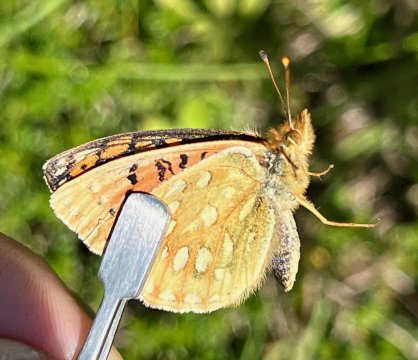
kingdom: Animalia
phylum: Arthropoda
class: Insecta
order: Lepidoptera
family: Nymphalidae
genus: Speyeria
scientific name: Speyeria mormonia
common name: Mormon Fritillary
